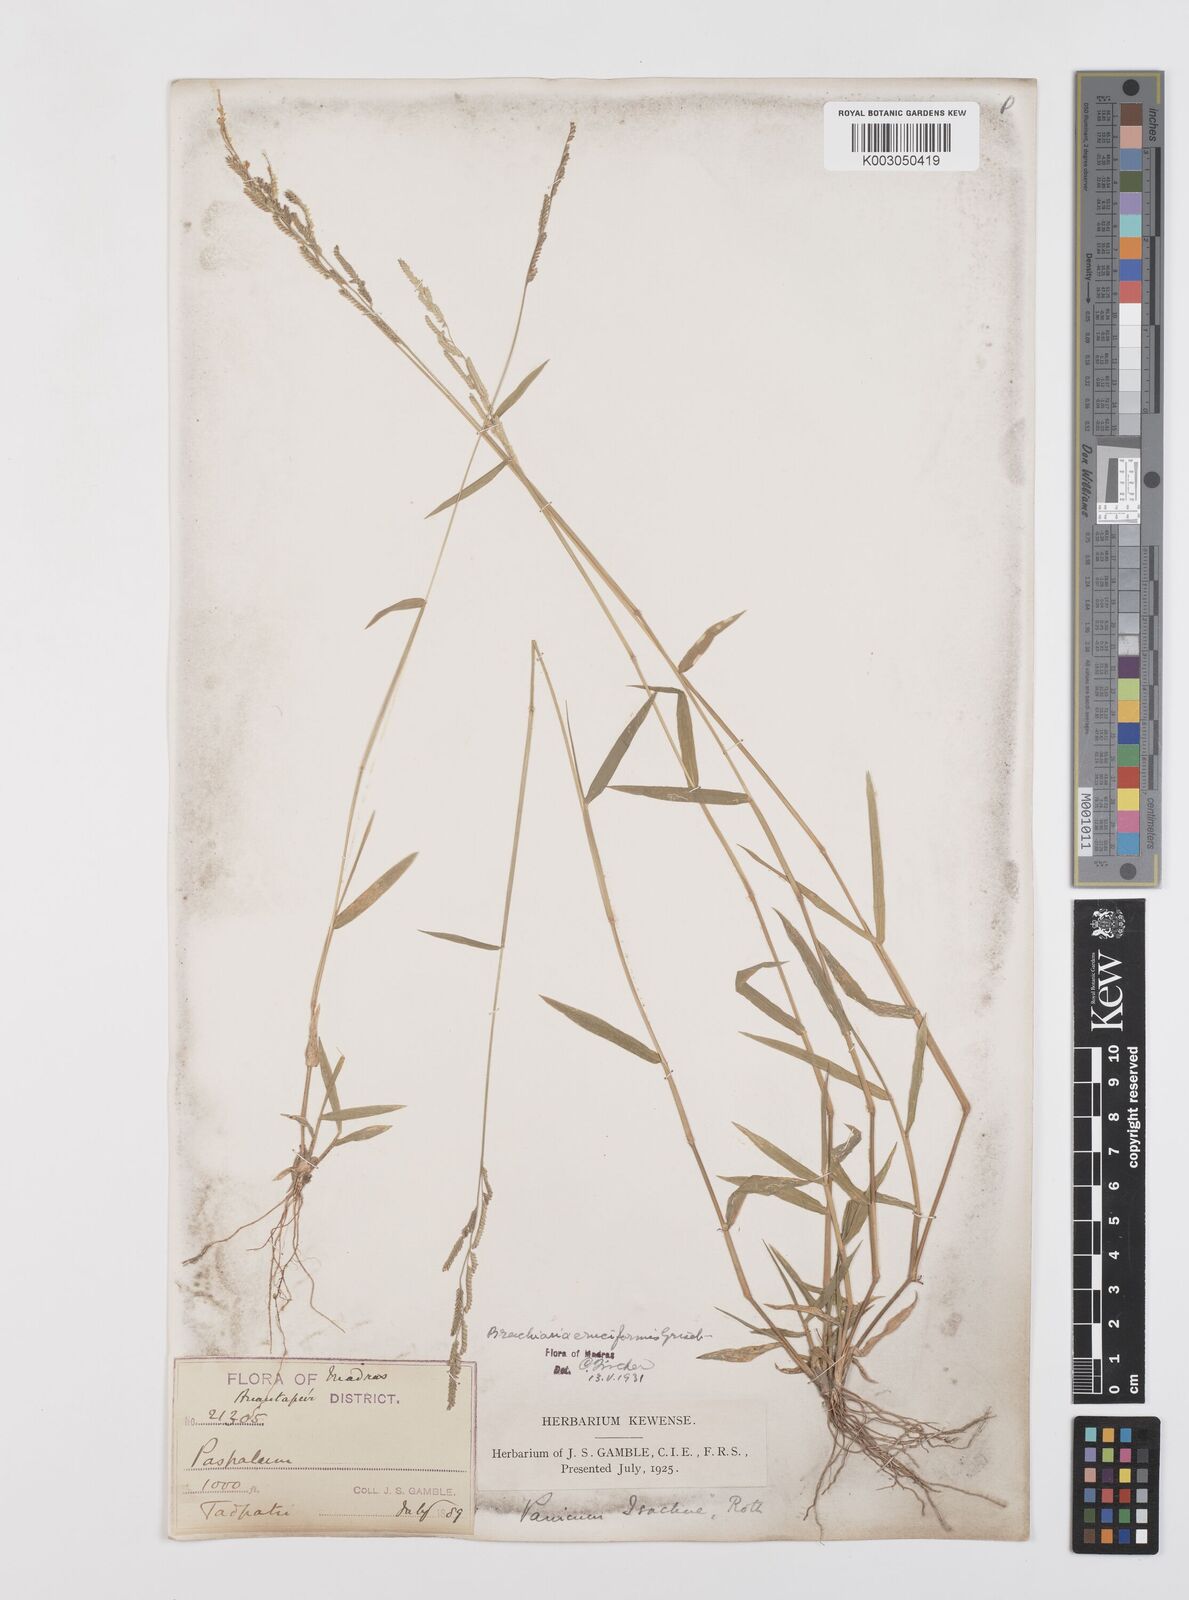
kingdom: Plantae
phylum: Tracheophyta
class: Liliopsida
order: Poales
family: Poaceae
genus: Moorochloa
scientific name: Moorochloa eruciformis
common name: Sweet signalgrass
